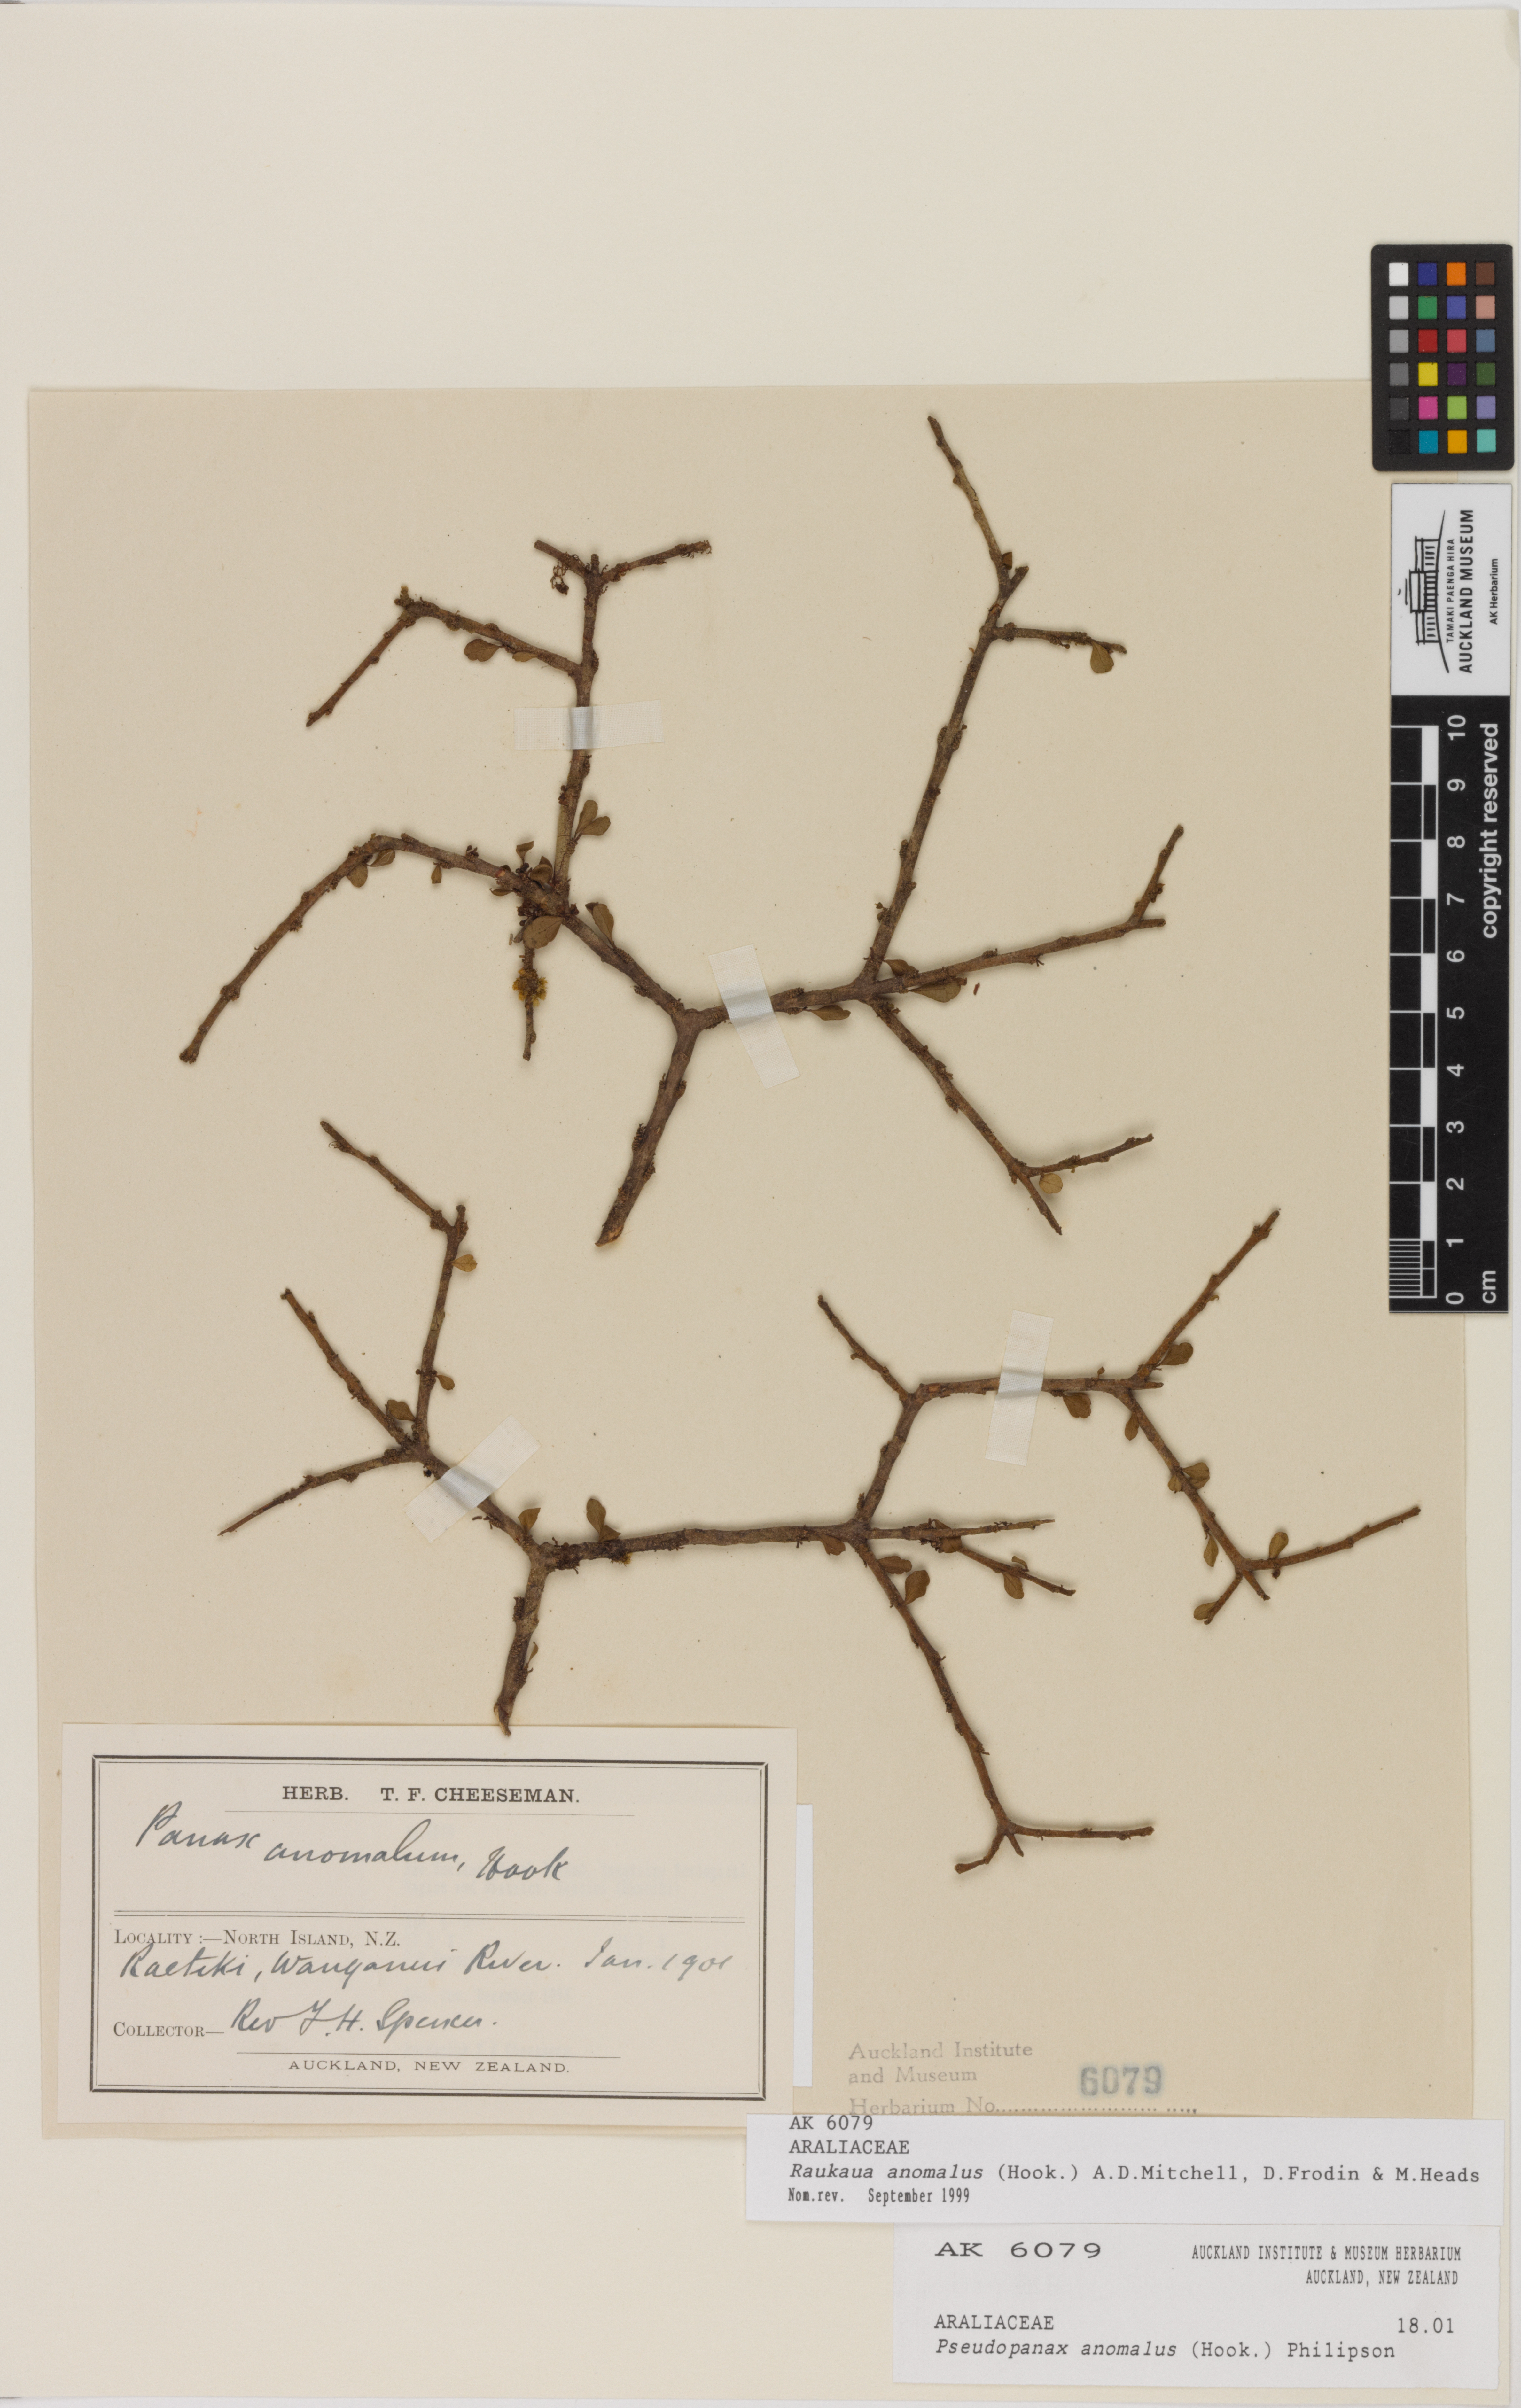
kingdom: Plantae
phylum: Tracheophyta
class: Magnoliopsida
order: Apiales
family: Araliaceae
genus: Raukaua
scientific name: Raukaua anomalus
